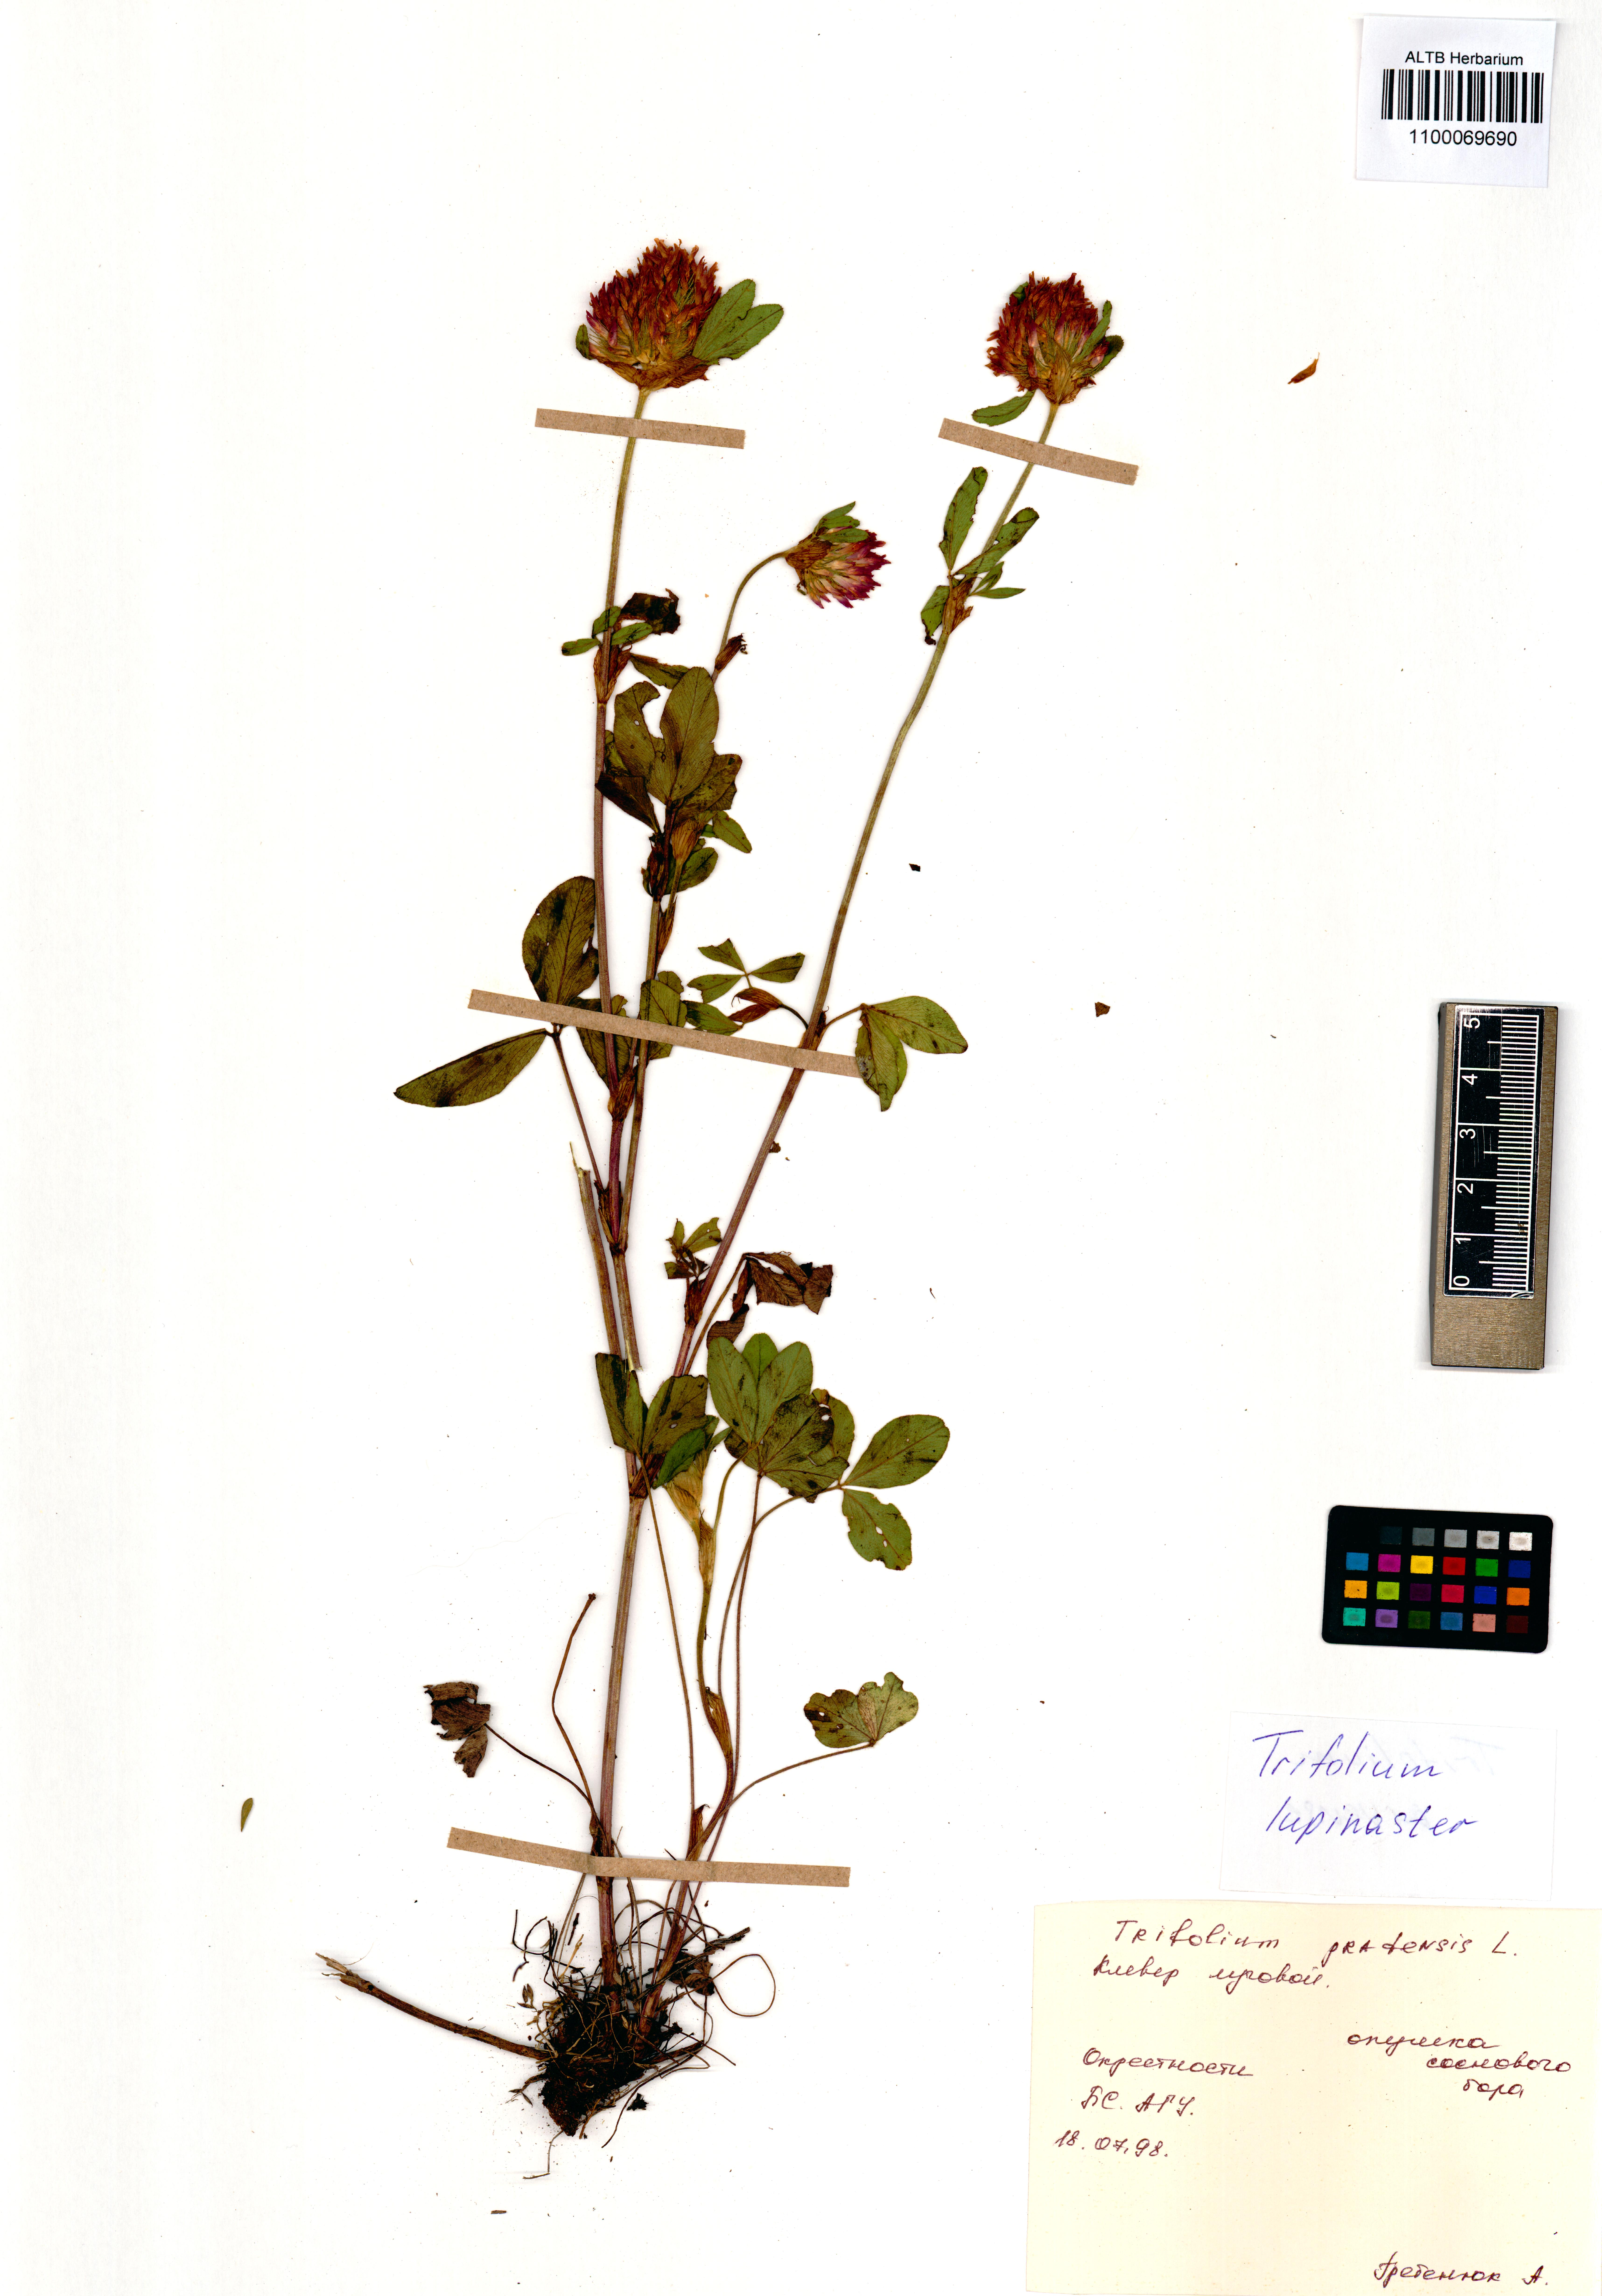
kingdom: Plantae
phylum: Tracheophyta
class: Magnoliopsida
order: Fabales
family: Fabaceae
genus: Trifolium
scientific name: Trifolium lupinaster
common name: Lupine clover
